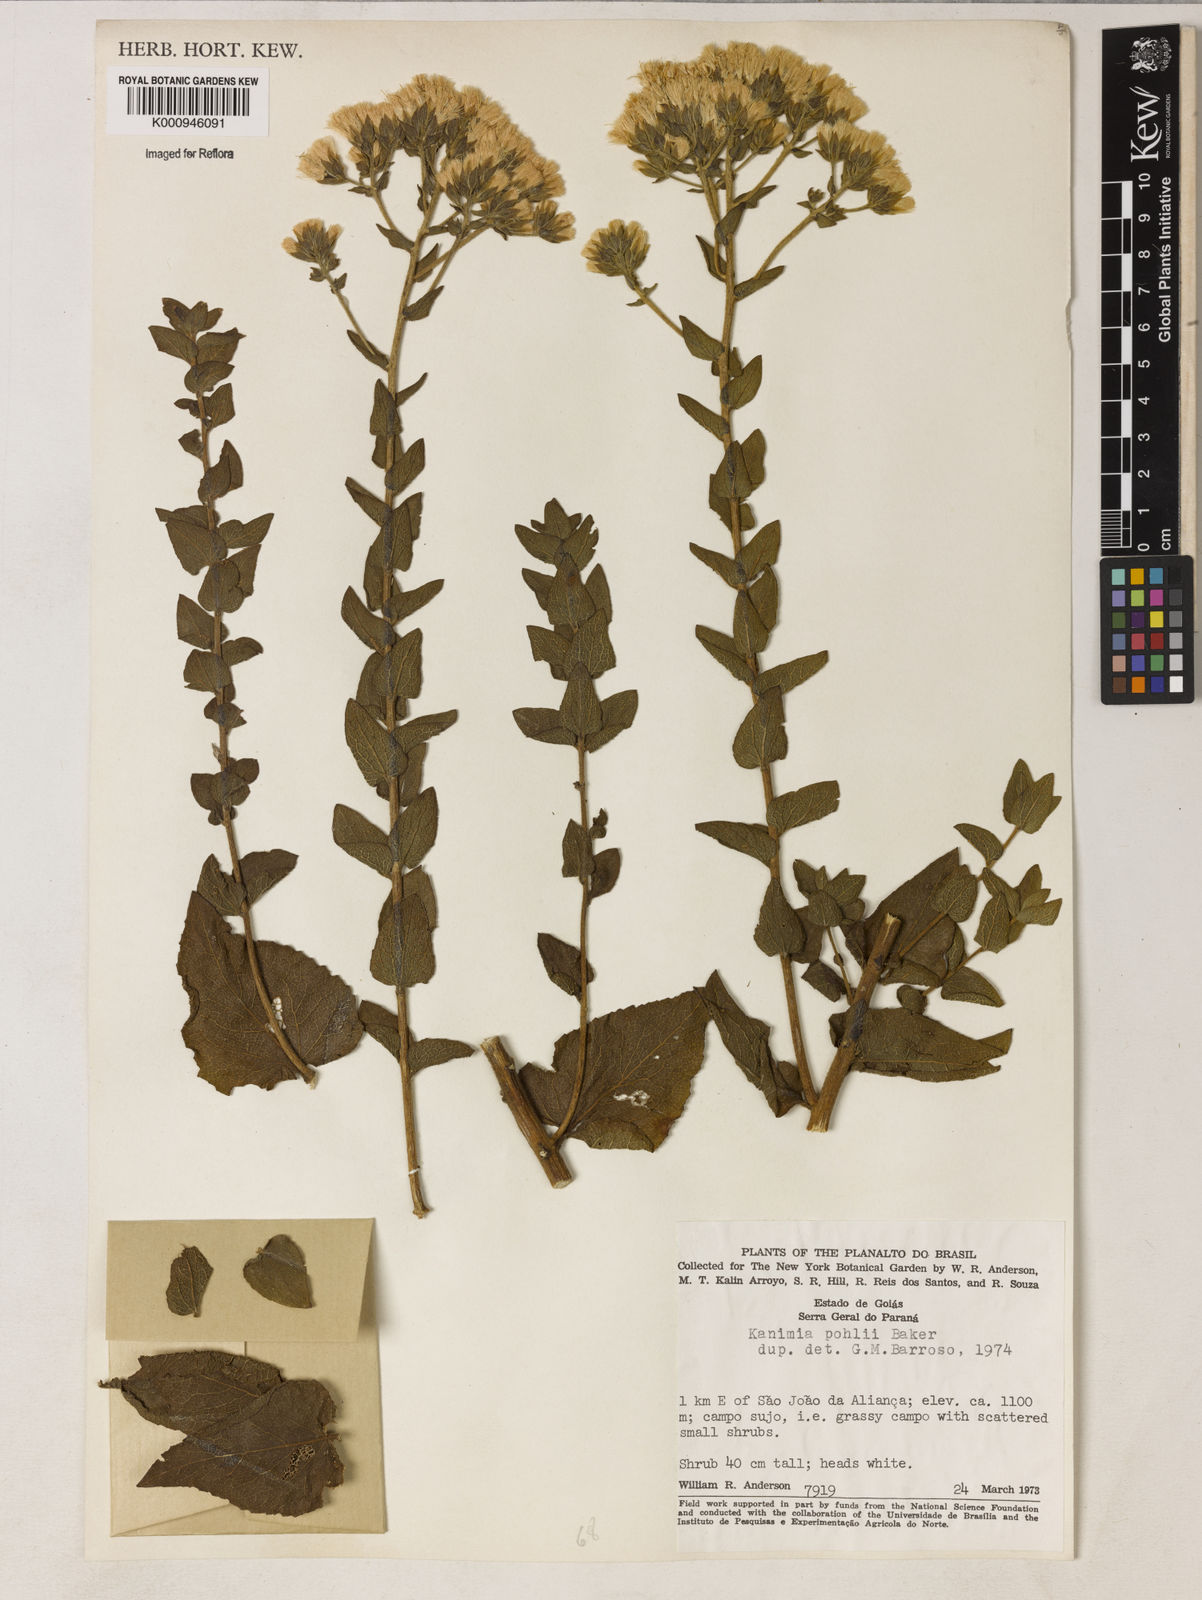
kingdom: Plantae
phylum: Tracheophyta
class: Magnoliopsida
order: Asterales
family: Asteraceae
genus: Mikania
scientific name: Mikania pohlii
